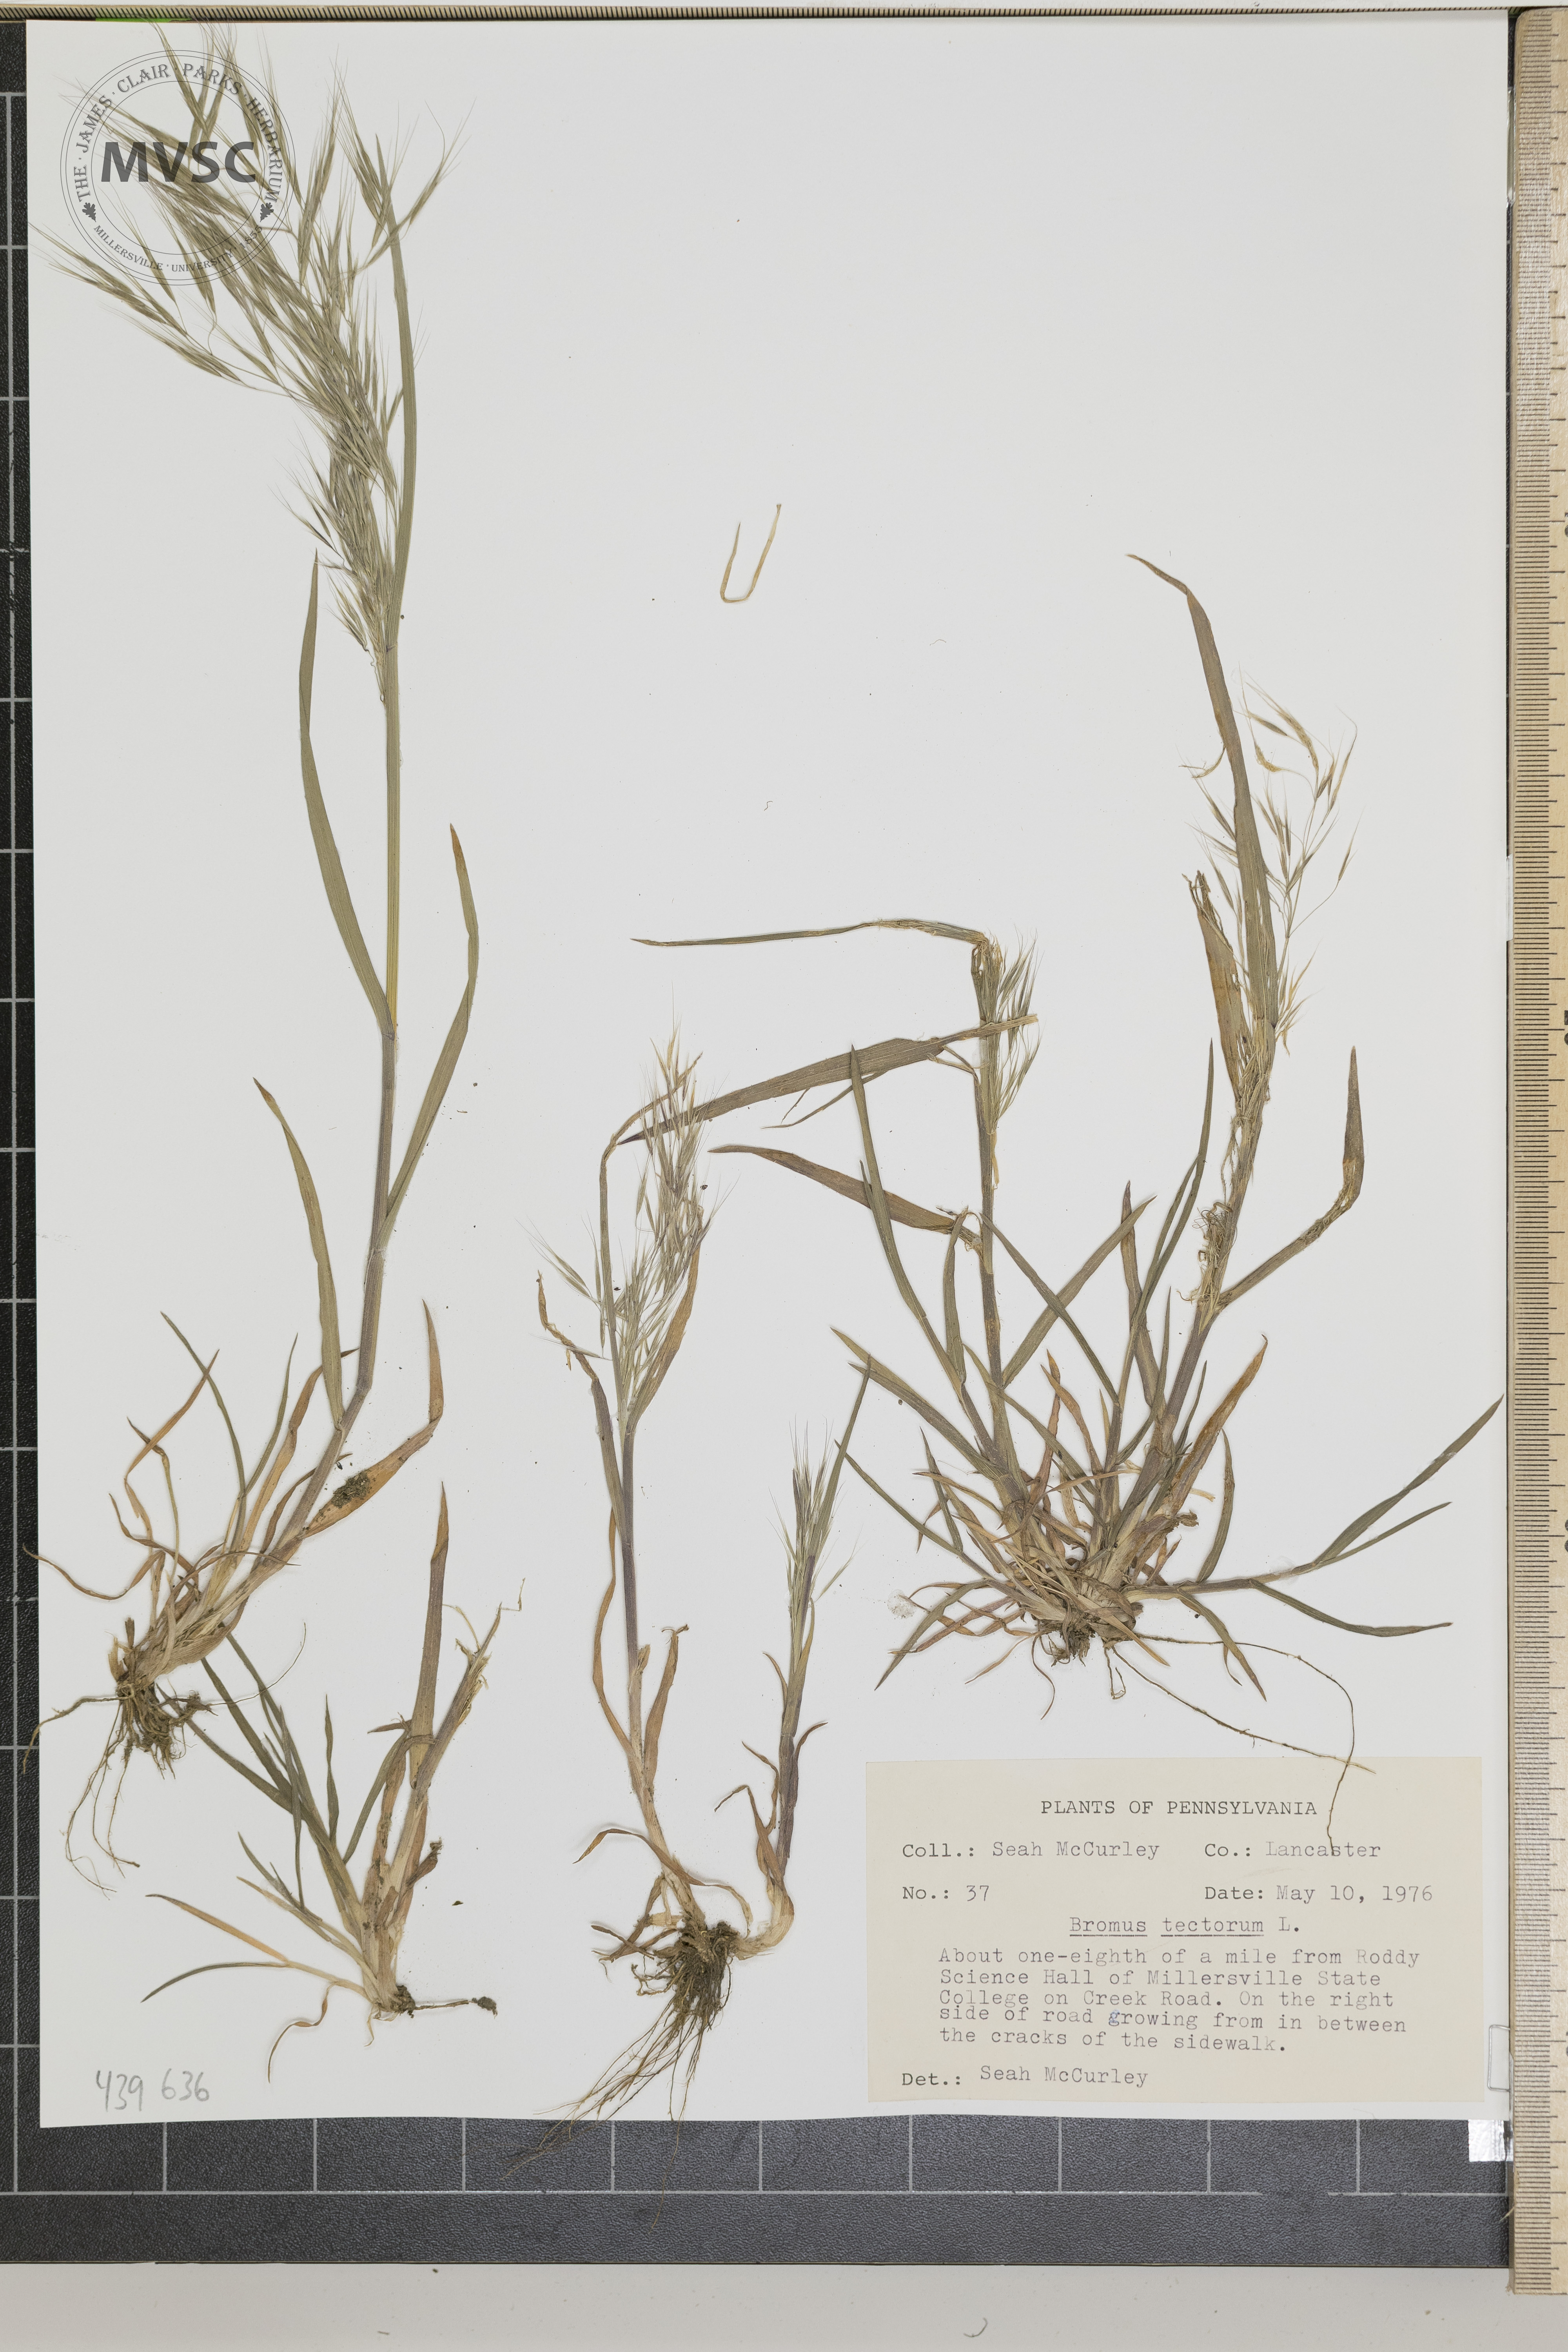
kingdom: Plantae
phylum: Tracheophyta
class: Liliopsida
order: Poales
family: Poaceae
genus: Bromus
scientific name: Bromus tectorum
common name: Cheatgrass
